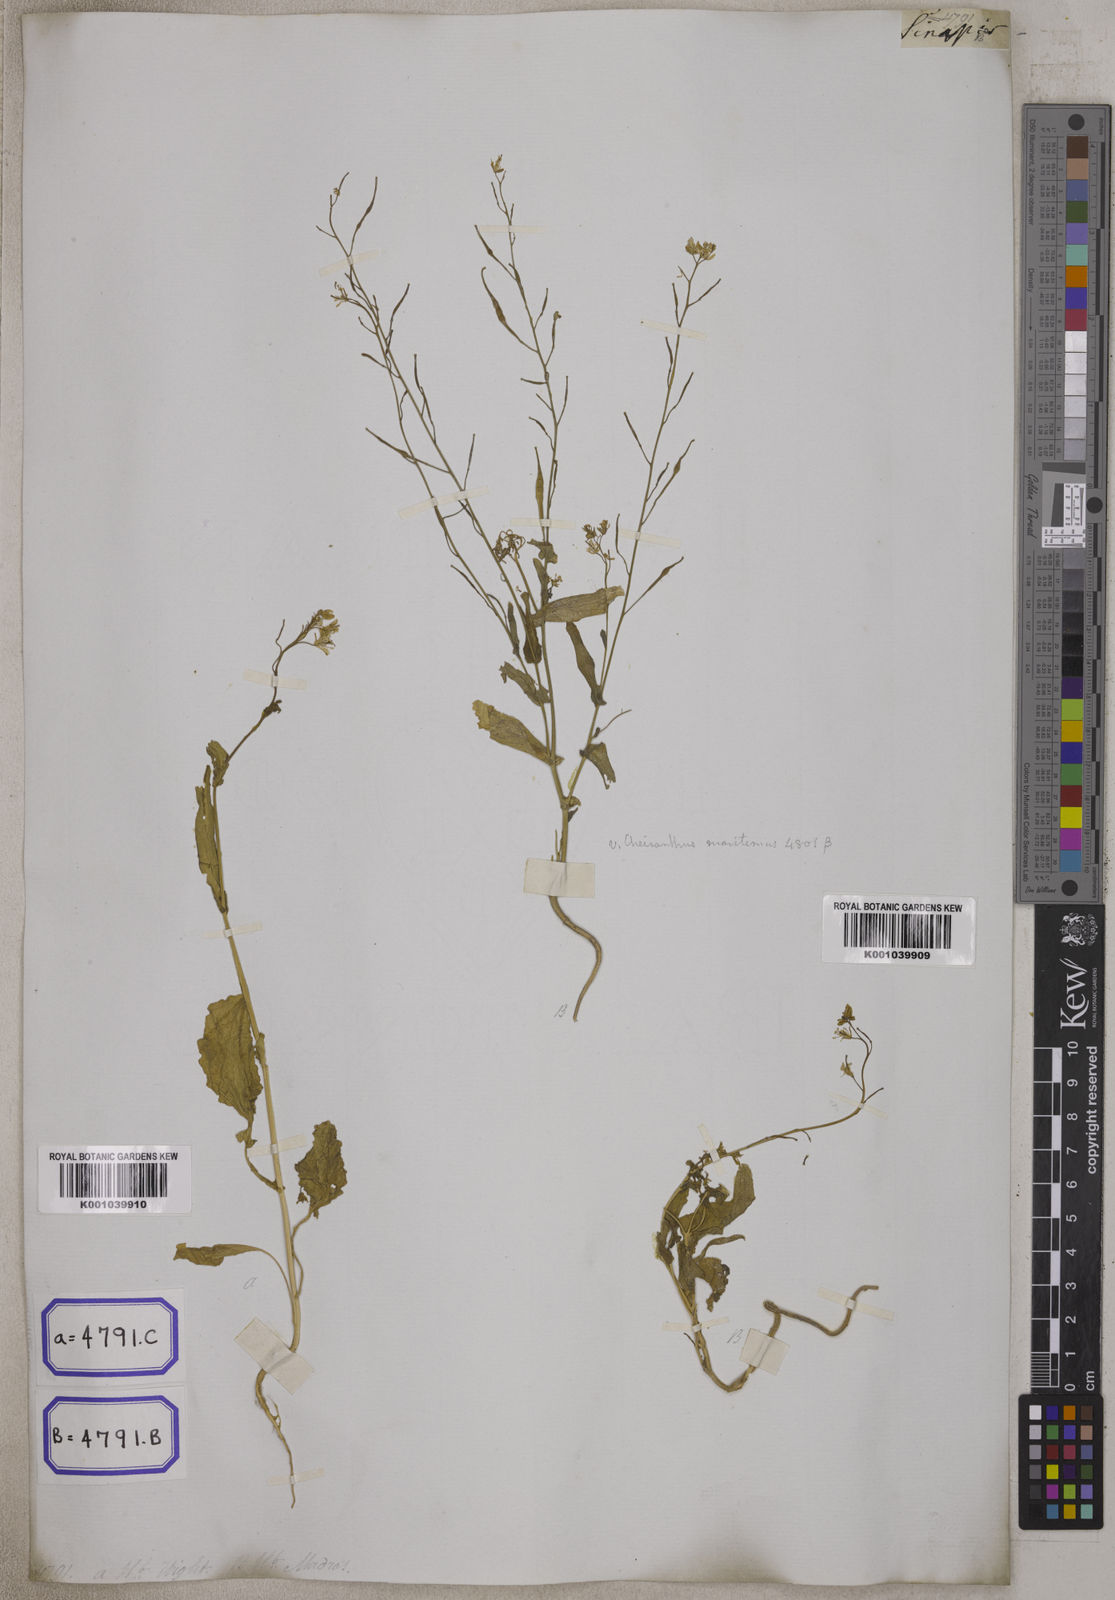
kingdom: Plantae
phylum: Tracheophyta
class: Magnoliopsida
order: Brassicales
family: Brassicaceae
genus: Brassica
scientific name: Brassica rapa
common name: Field mustard
